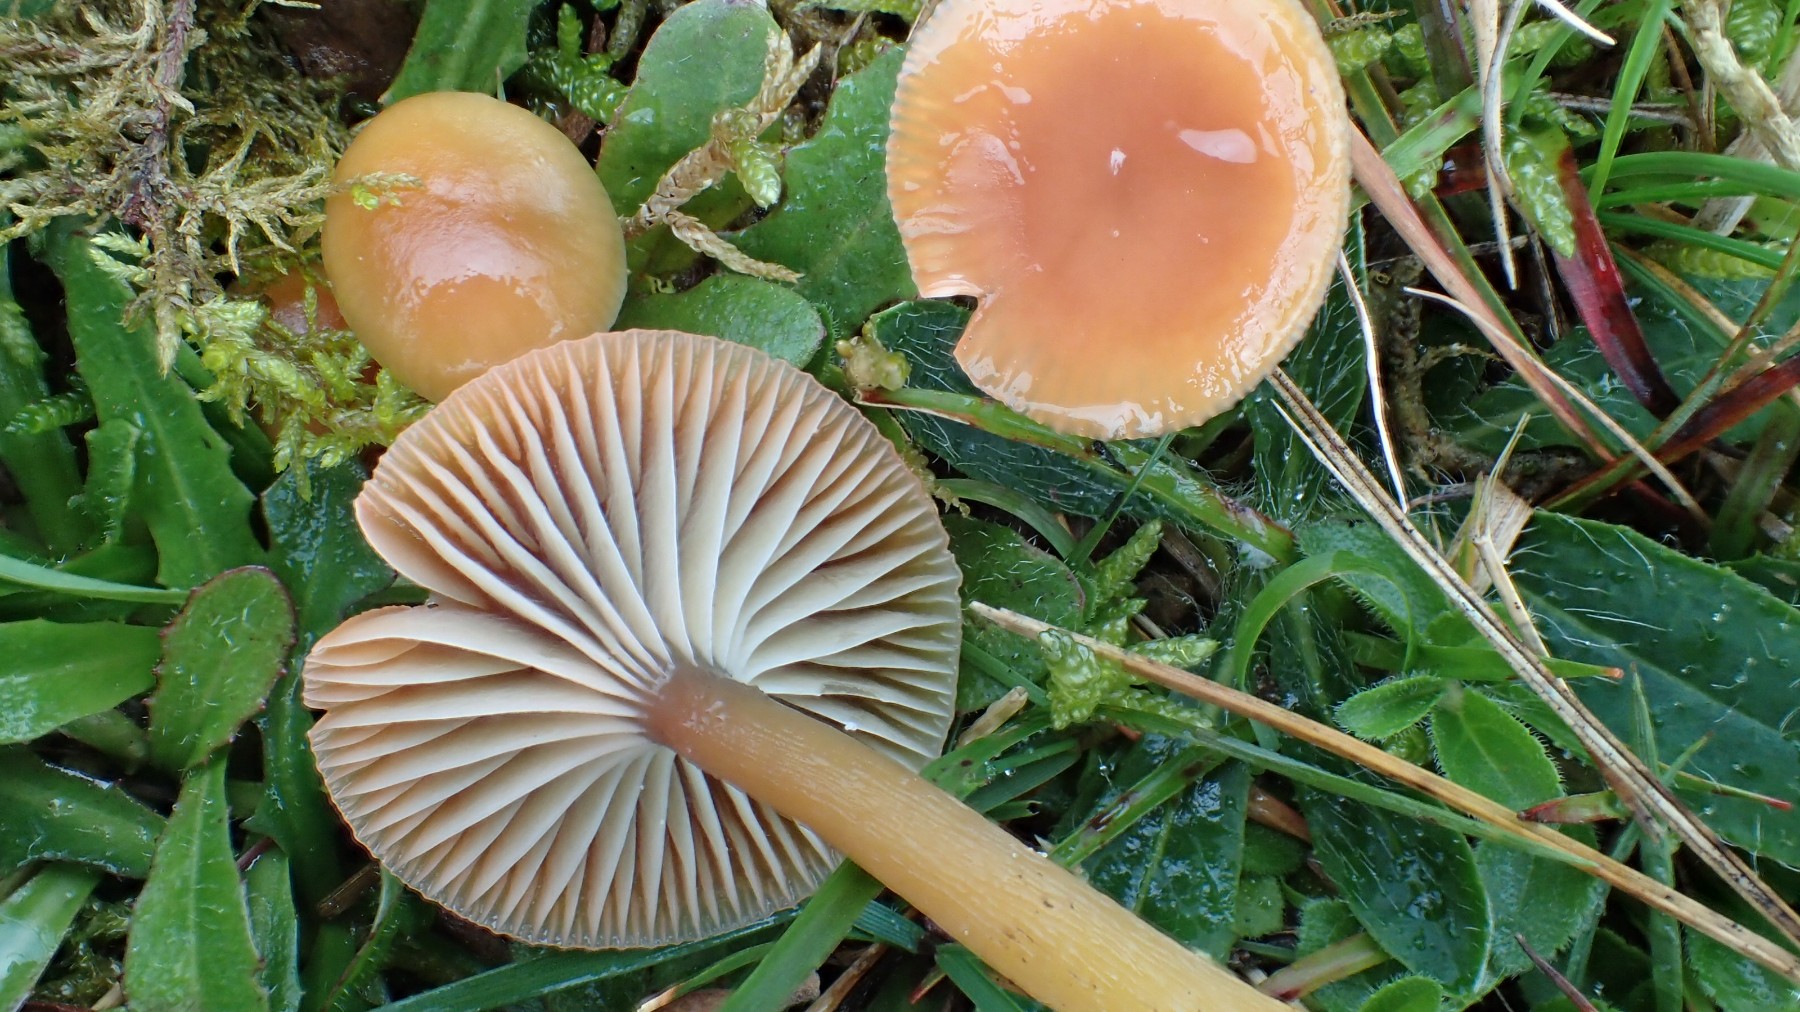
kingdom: Fungi
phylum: Basidiomycota
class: Agaricomycetes
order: Agaricales
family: Hygrophoraceae
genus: Gliophorus
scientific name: Gliophorus laetus
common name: brusk-vokshat
